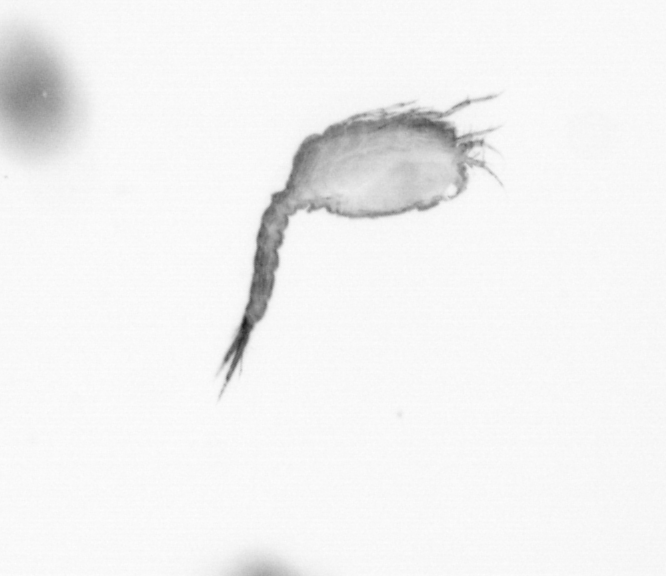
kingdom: Animalia
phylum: Arthropoda
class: Copepoda
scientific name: Copepoda
